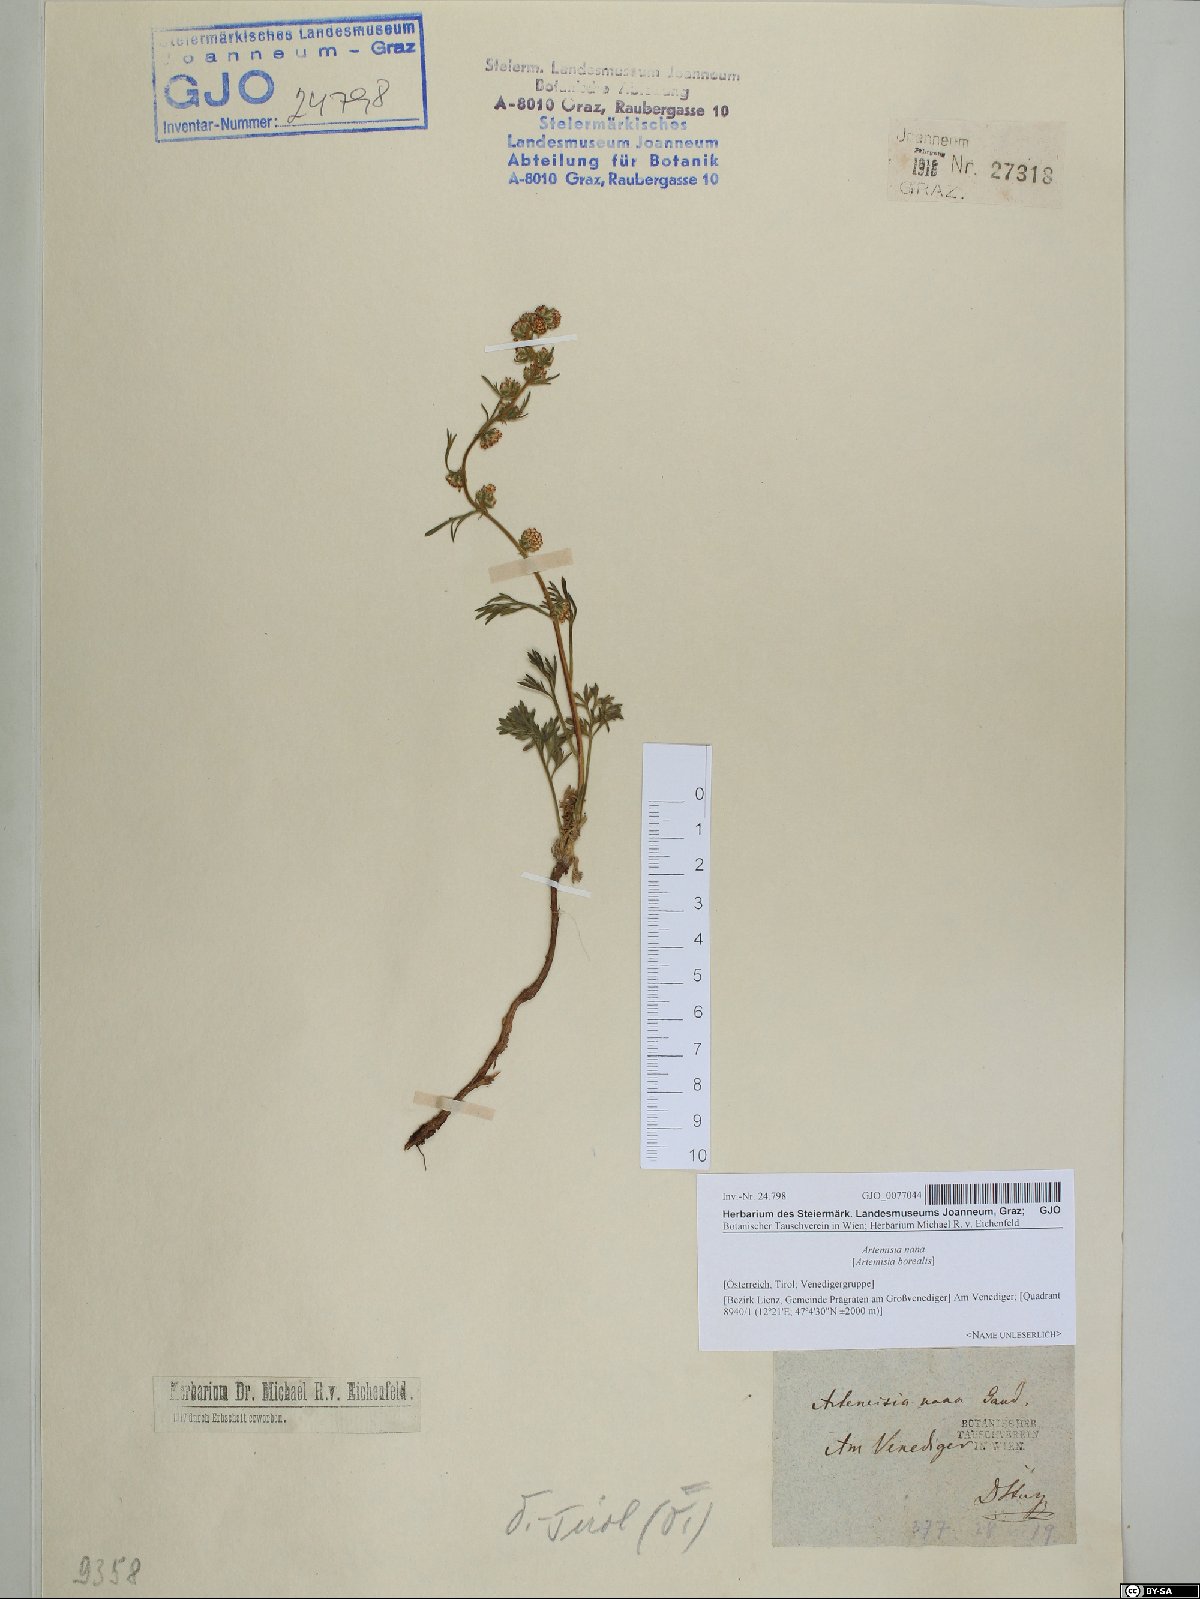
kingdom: Plantae
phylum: Tracheophyta
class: Magnoliopsida
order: Asterales
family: Asteraceae
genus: Artemisia
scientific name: Artemisia borealis
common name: Boreal sage
